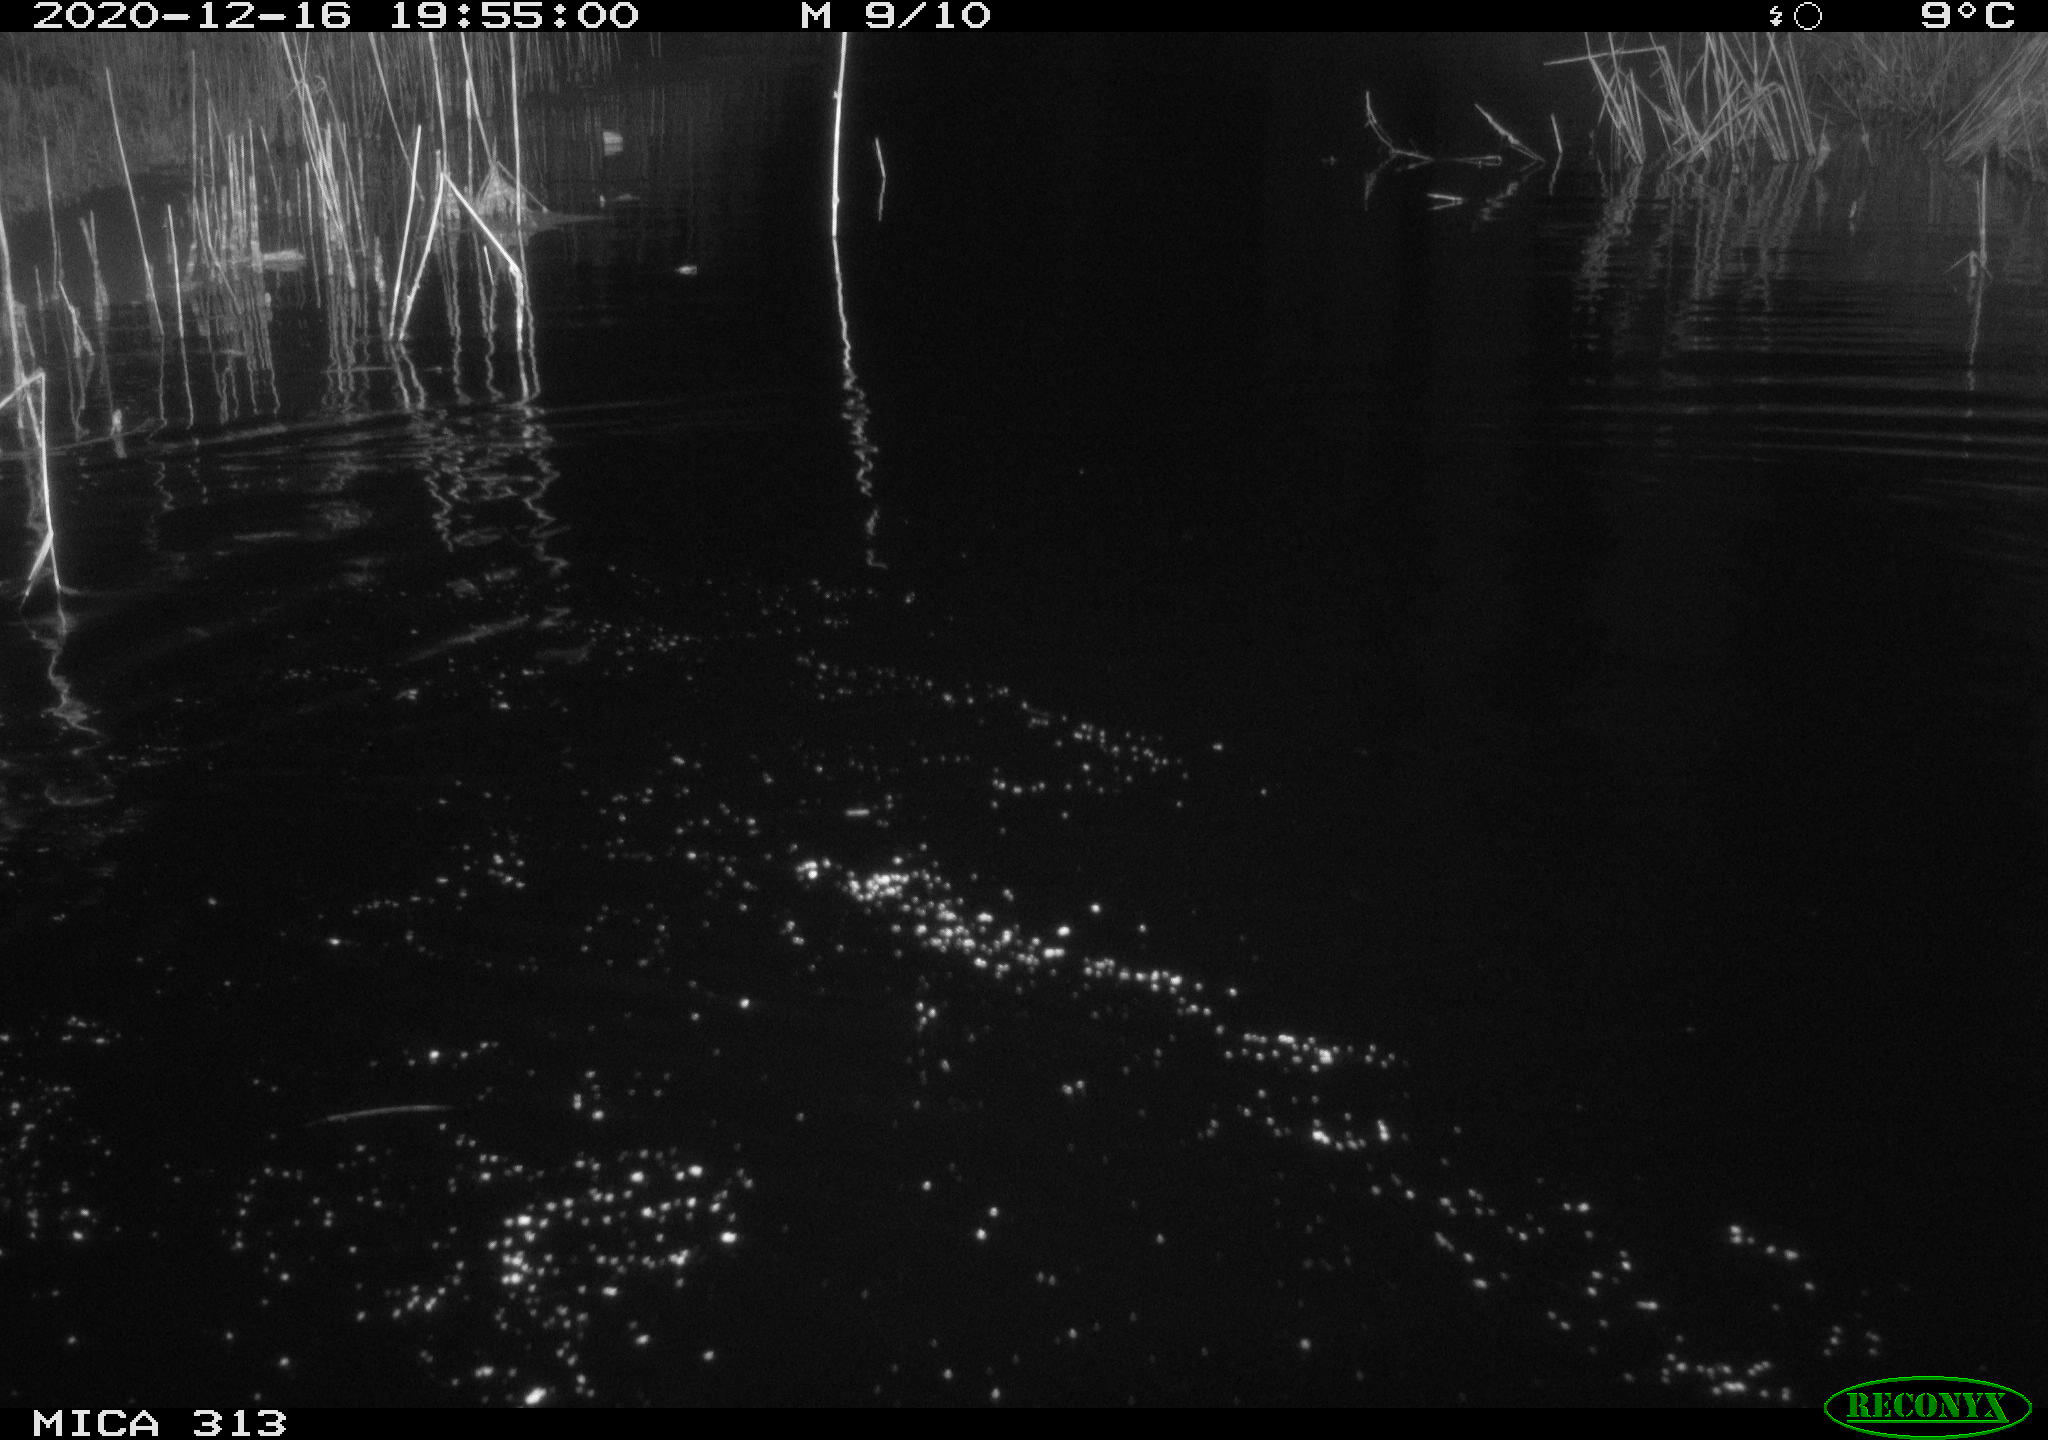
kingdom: Animalia
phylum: Chordata
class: Mammalia
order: Rodentia
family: Muridae
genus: Rattus
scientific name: Rattus norvegicus
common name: Brown rat
